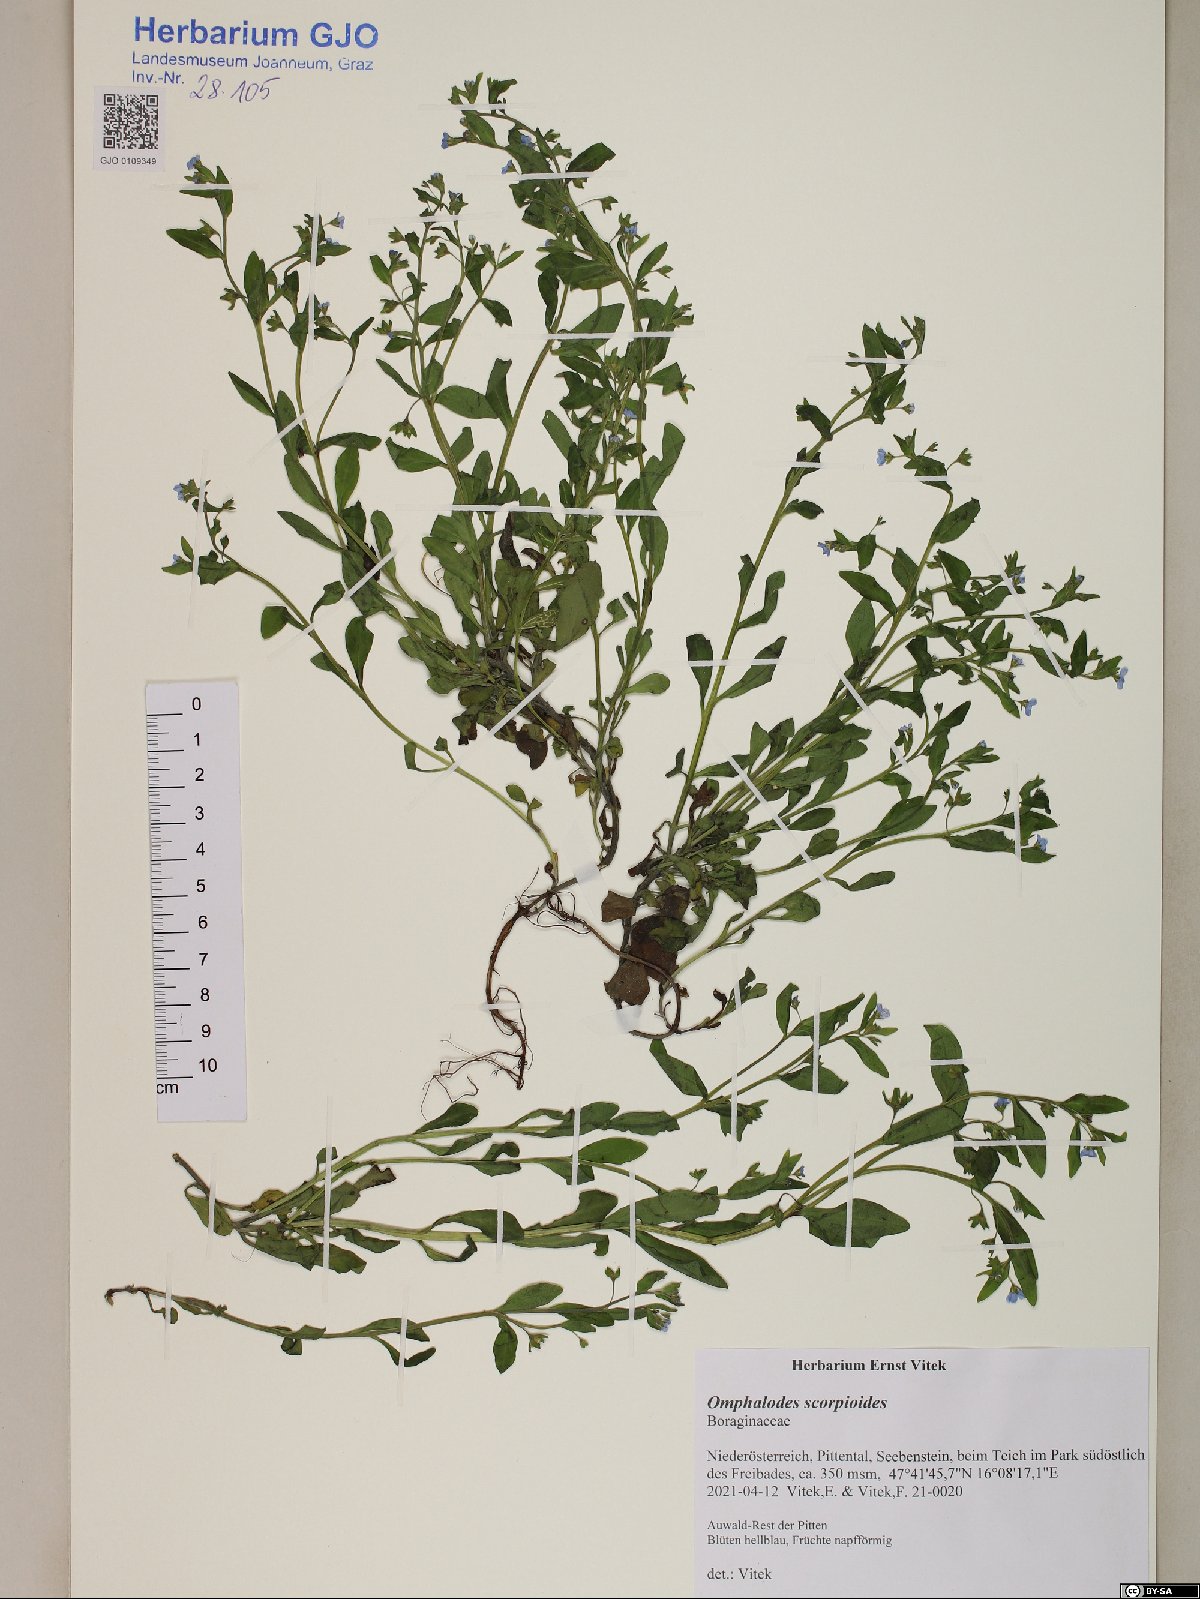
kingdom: Plantae
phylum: Tracheophyta
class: Magnoliopsida
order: Boraginales
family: Boraginaceae
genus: Memoremea
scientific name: Memoremea scorpioides
